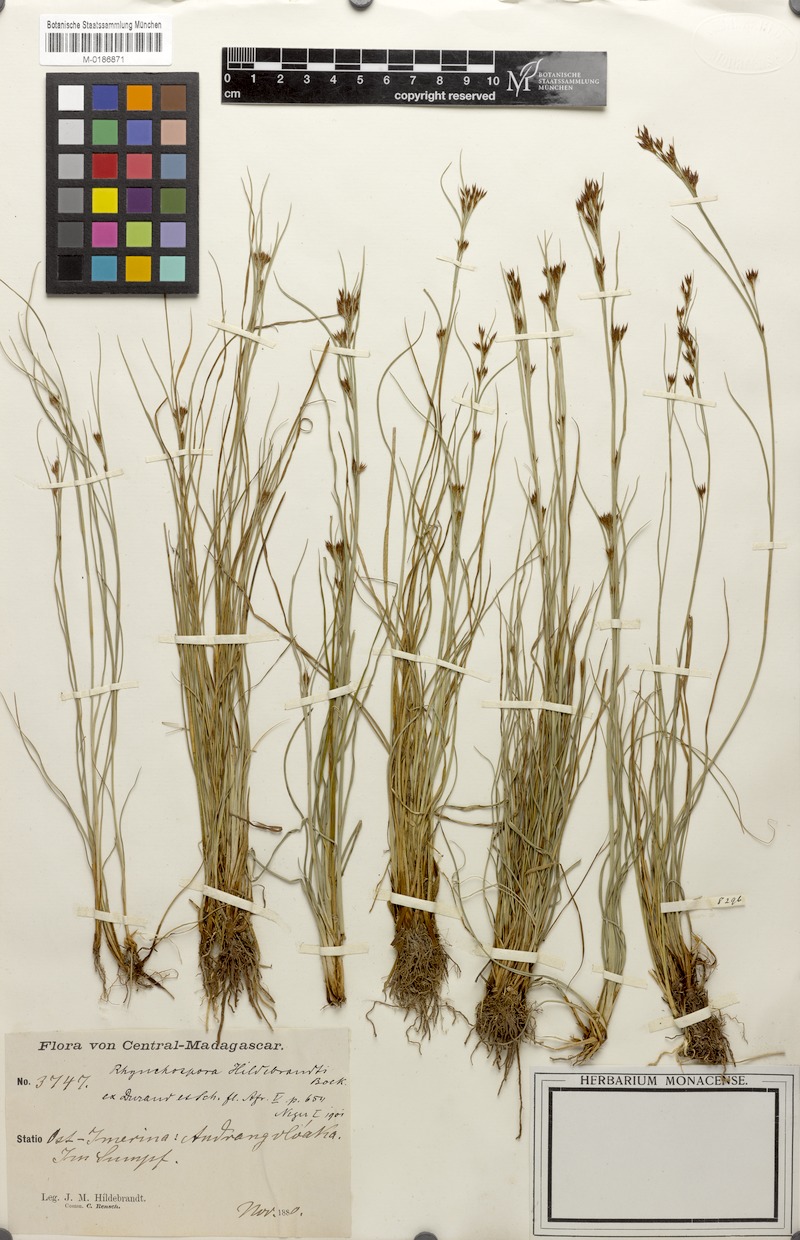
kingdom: Plantae
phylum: Tracheophyta
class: Liliopsida
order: Poales
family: Cyperaceae
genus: Rhynchospora
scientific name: Rhynchospora
